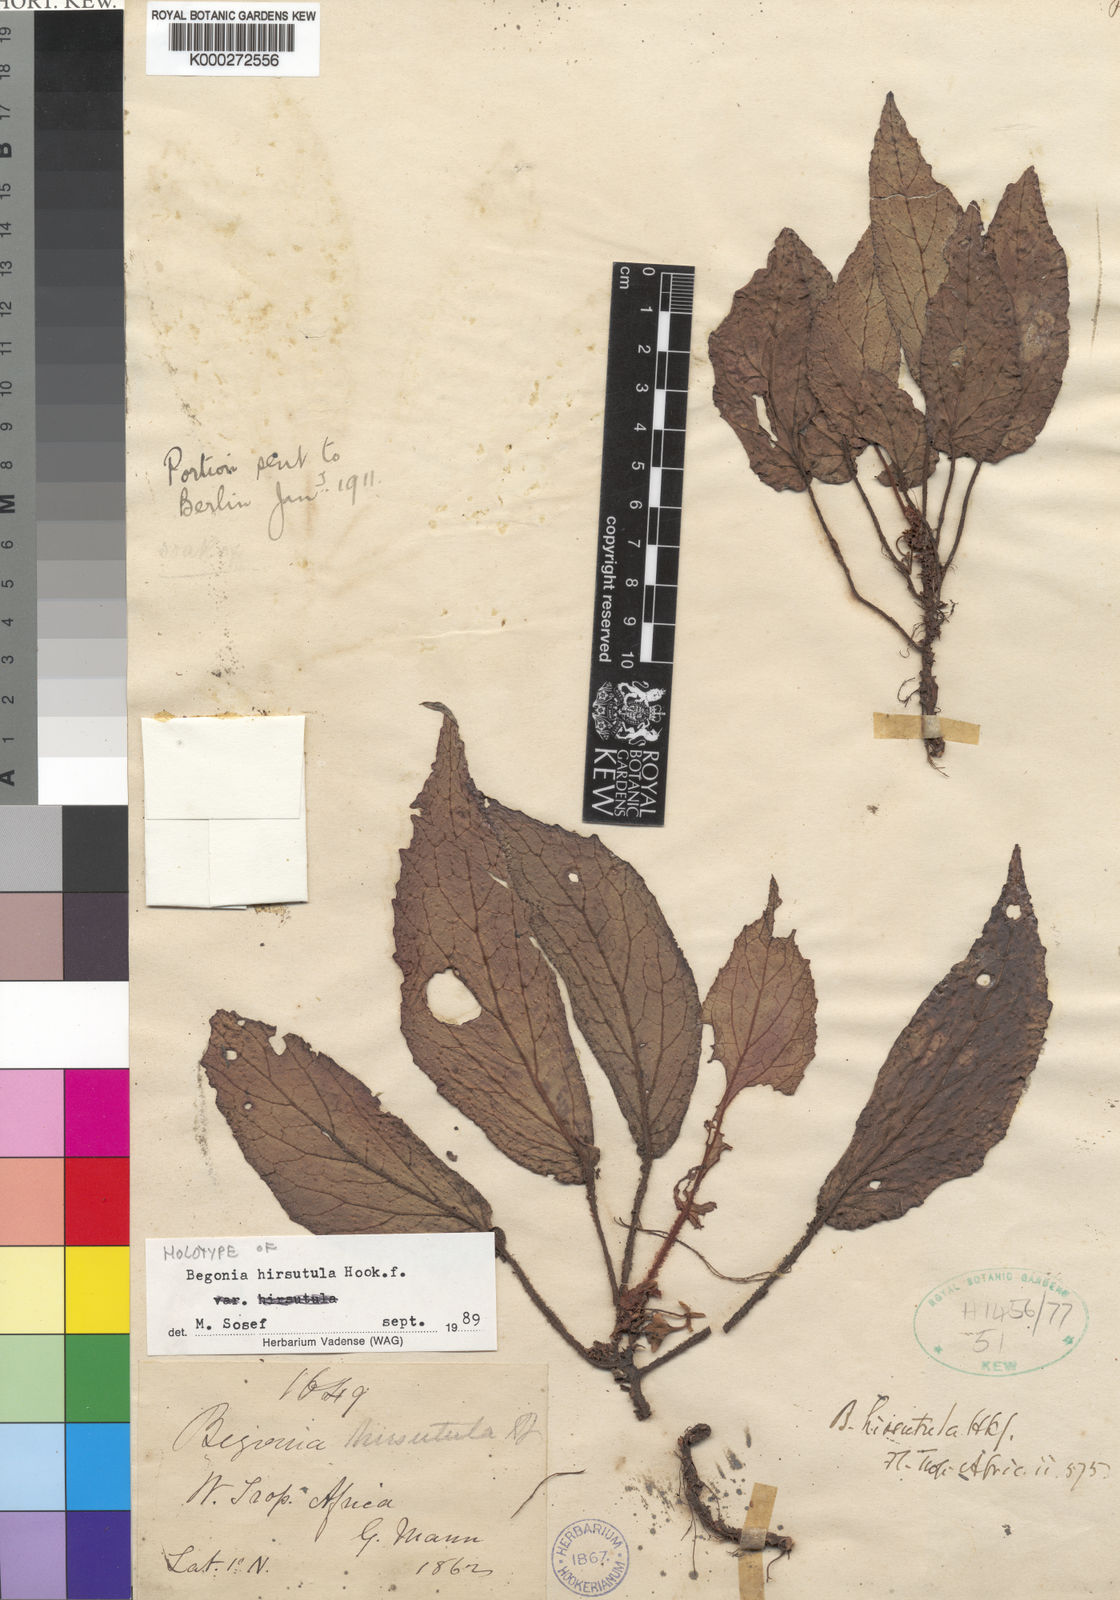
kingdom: Plantae
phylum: Tracheophyta
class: Magnoliopsida
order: Cucurbitales
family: Begoniaceae
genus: Begonia
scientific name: Begonia hirsutula
